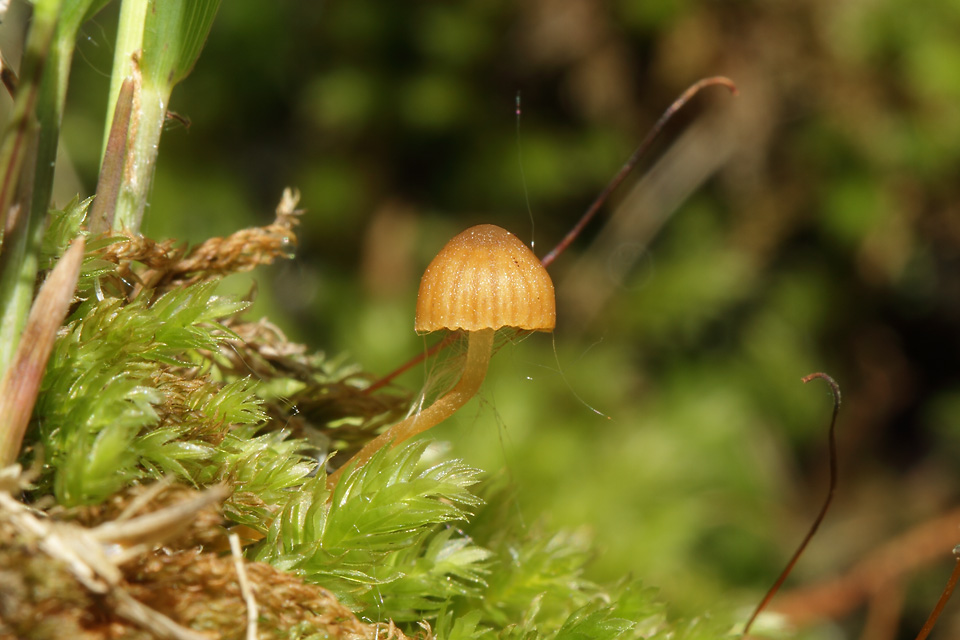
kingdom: Fungi
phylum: Basidiomycota
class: Agaricomycetes
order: Agaricales
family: Hymenogastraceae
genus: Galerina
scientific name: Galerina hypnorum
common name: mos-hjelmhat
